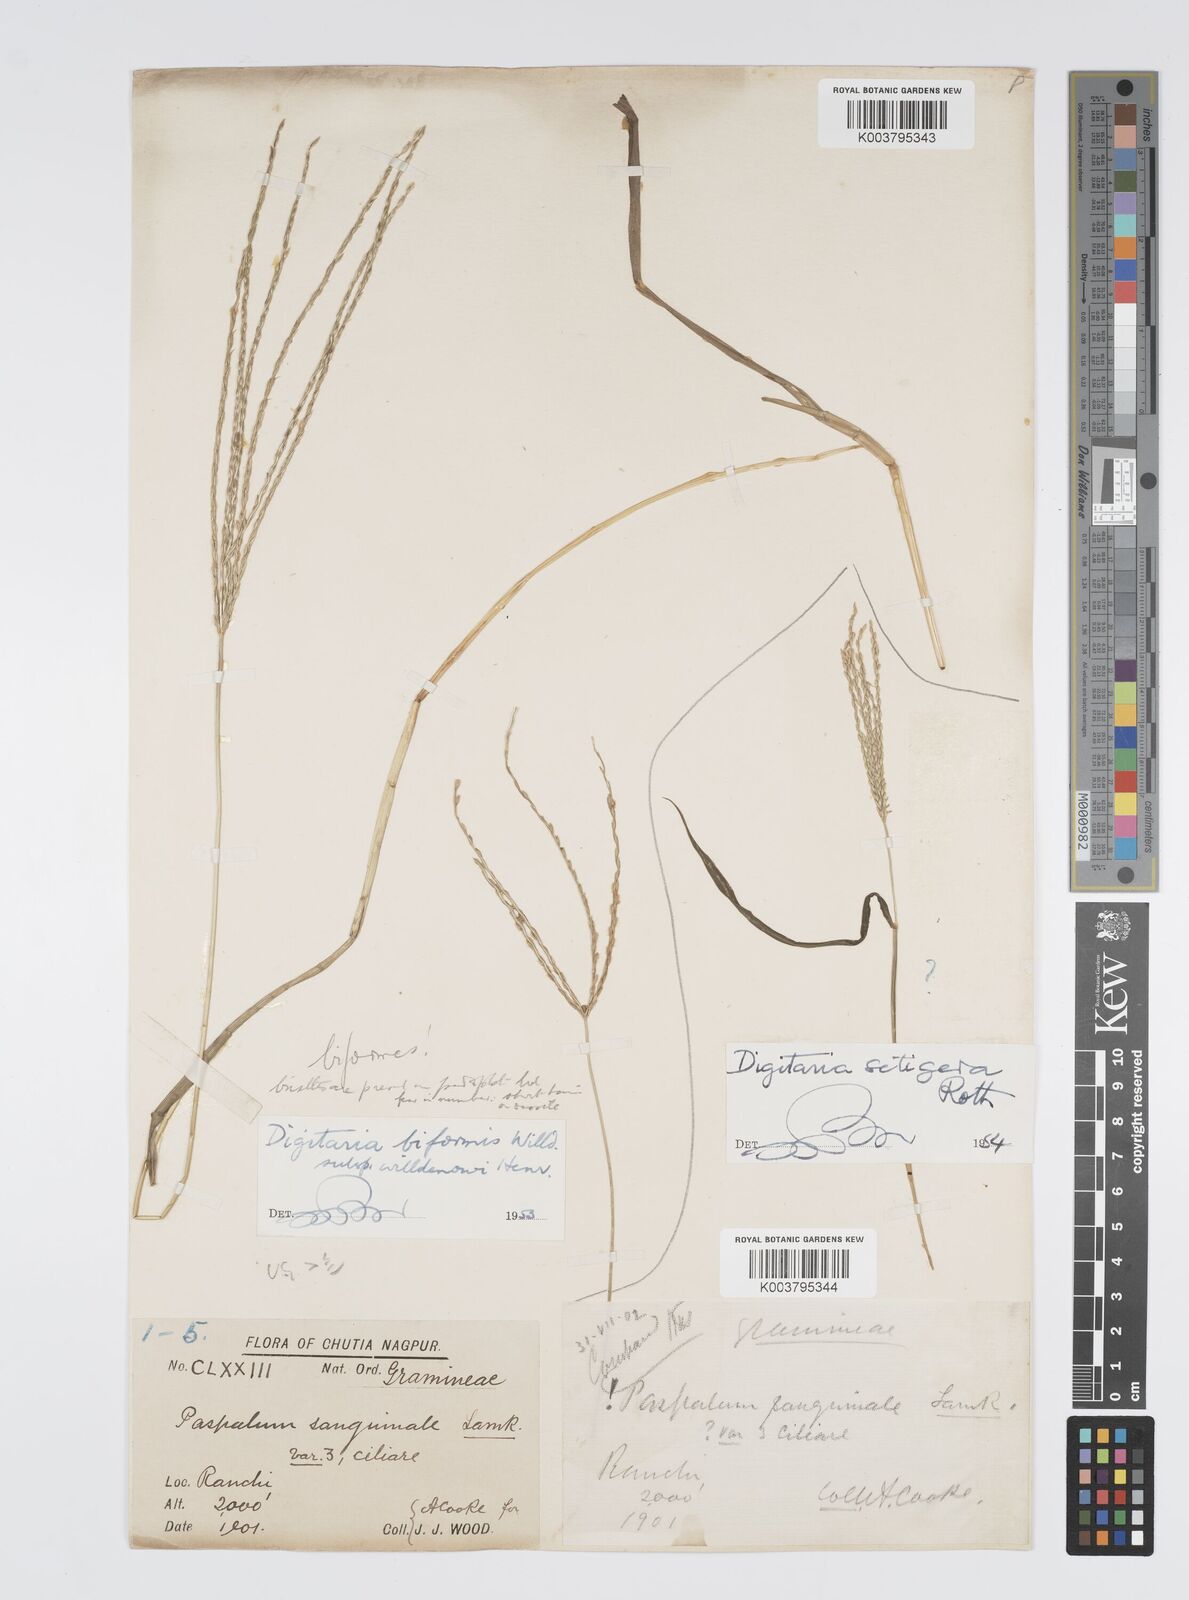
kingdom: Plantae
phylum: Tracheophyta
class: Liliopsida
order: Poales
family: Poaceae
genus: Digitaria
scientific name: Digitaria ciliaris
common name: Tropical finger-grass
